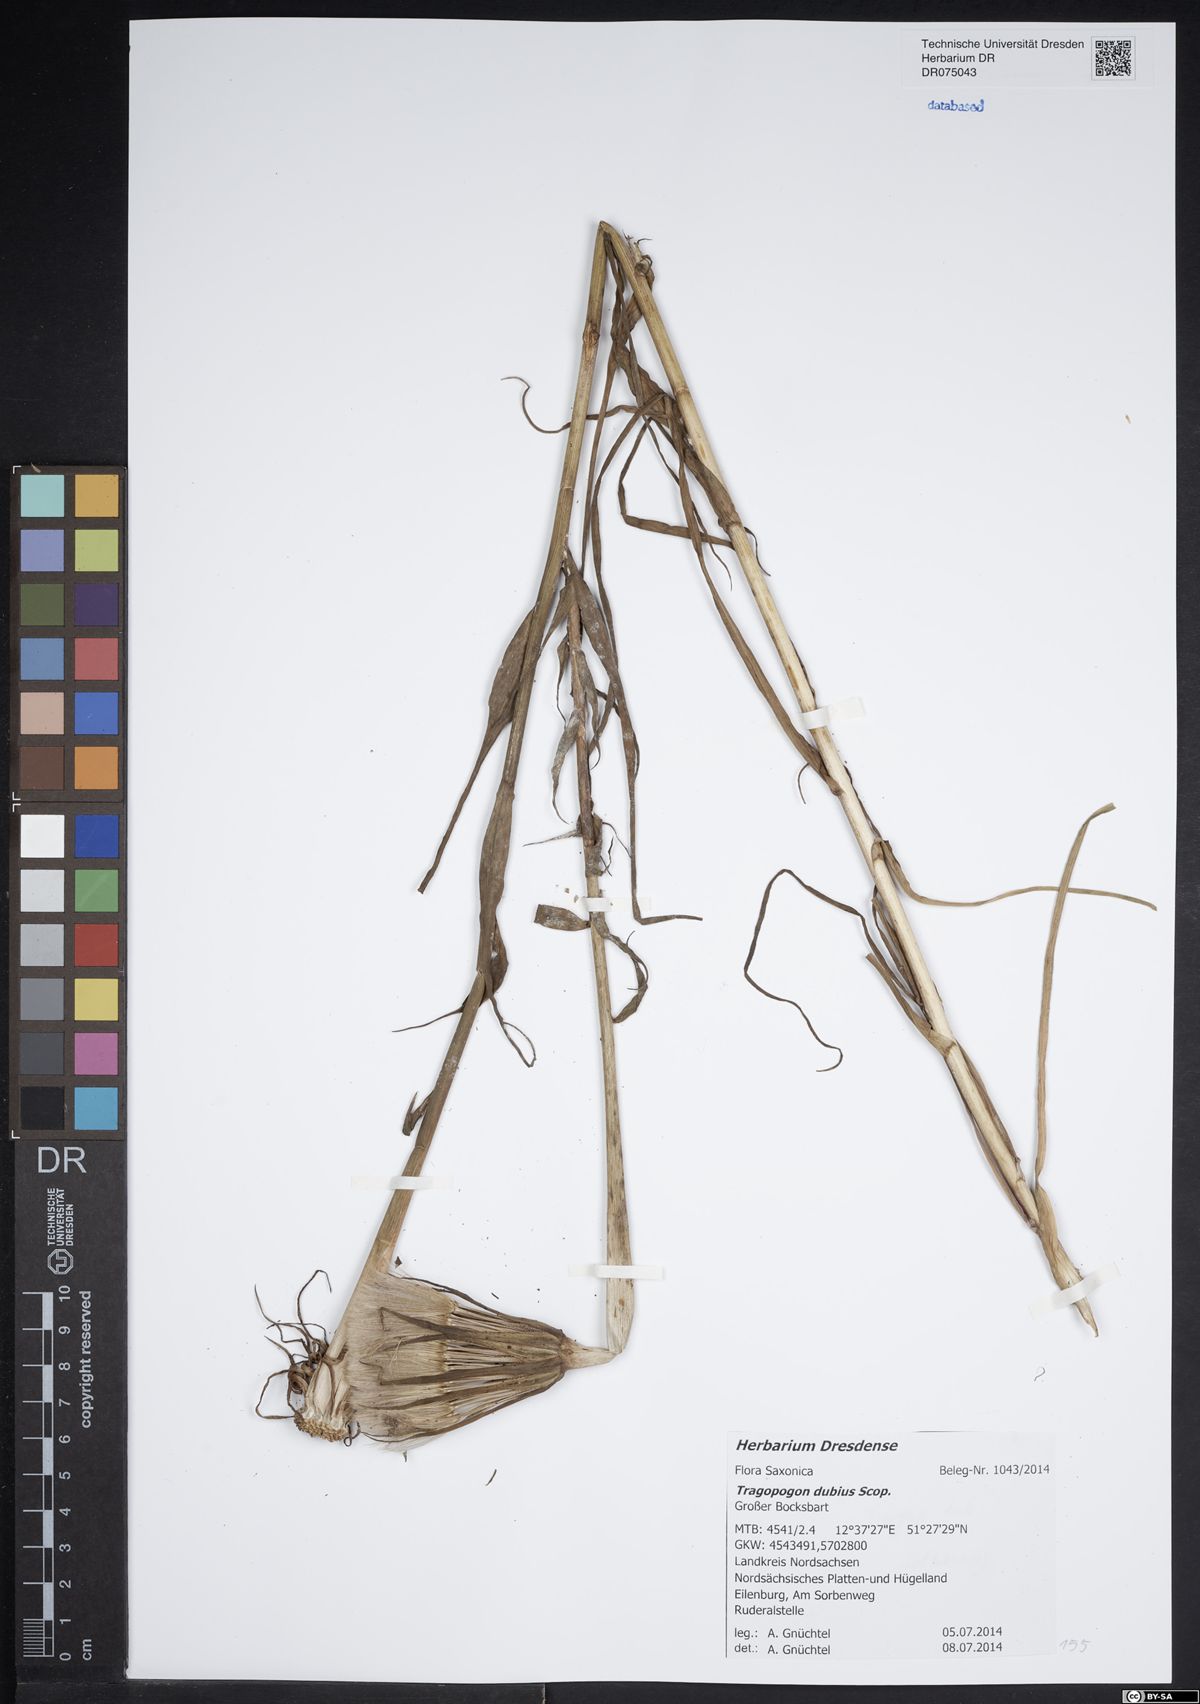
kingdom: Plantae
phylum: Tracheophyta
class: Magnoliopsida
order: Asterales
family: Asteraceae
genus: Tragopogon
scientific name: Tragopogon dubius
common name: Yellow salsify
